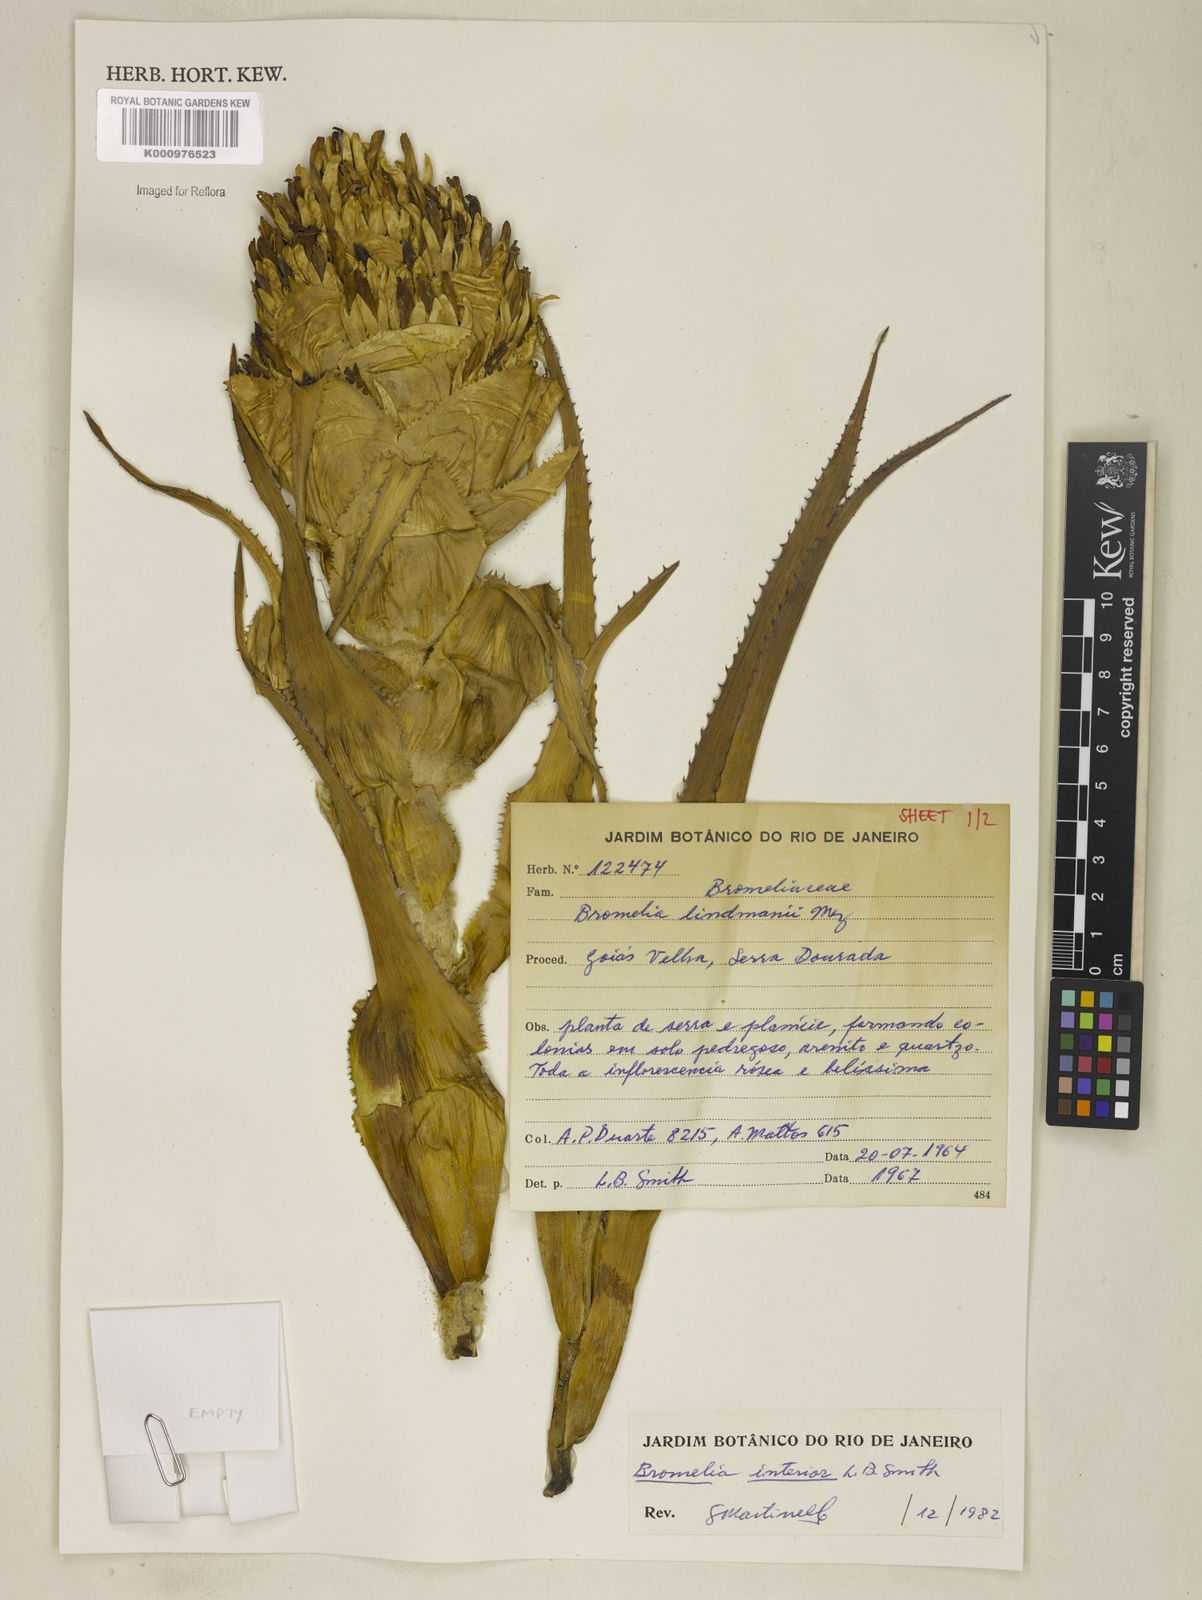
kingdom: Plantae
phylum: Tracheophyta
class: Liliopsida
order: Poales
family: Bromeliaceae
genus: Bromelia
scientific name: Bromelia interior
